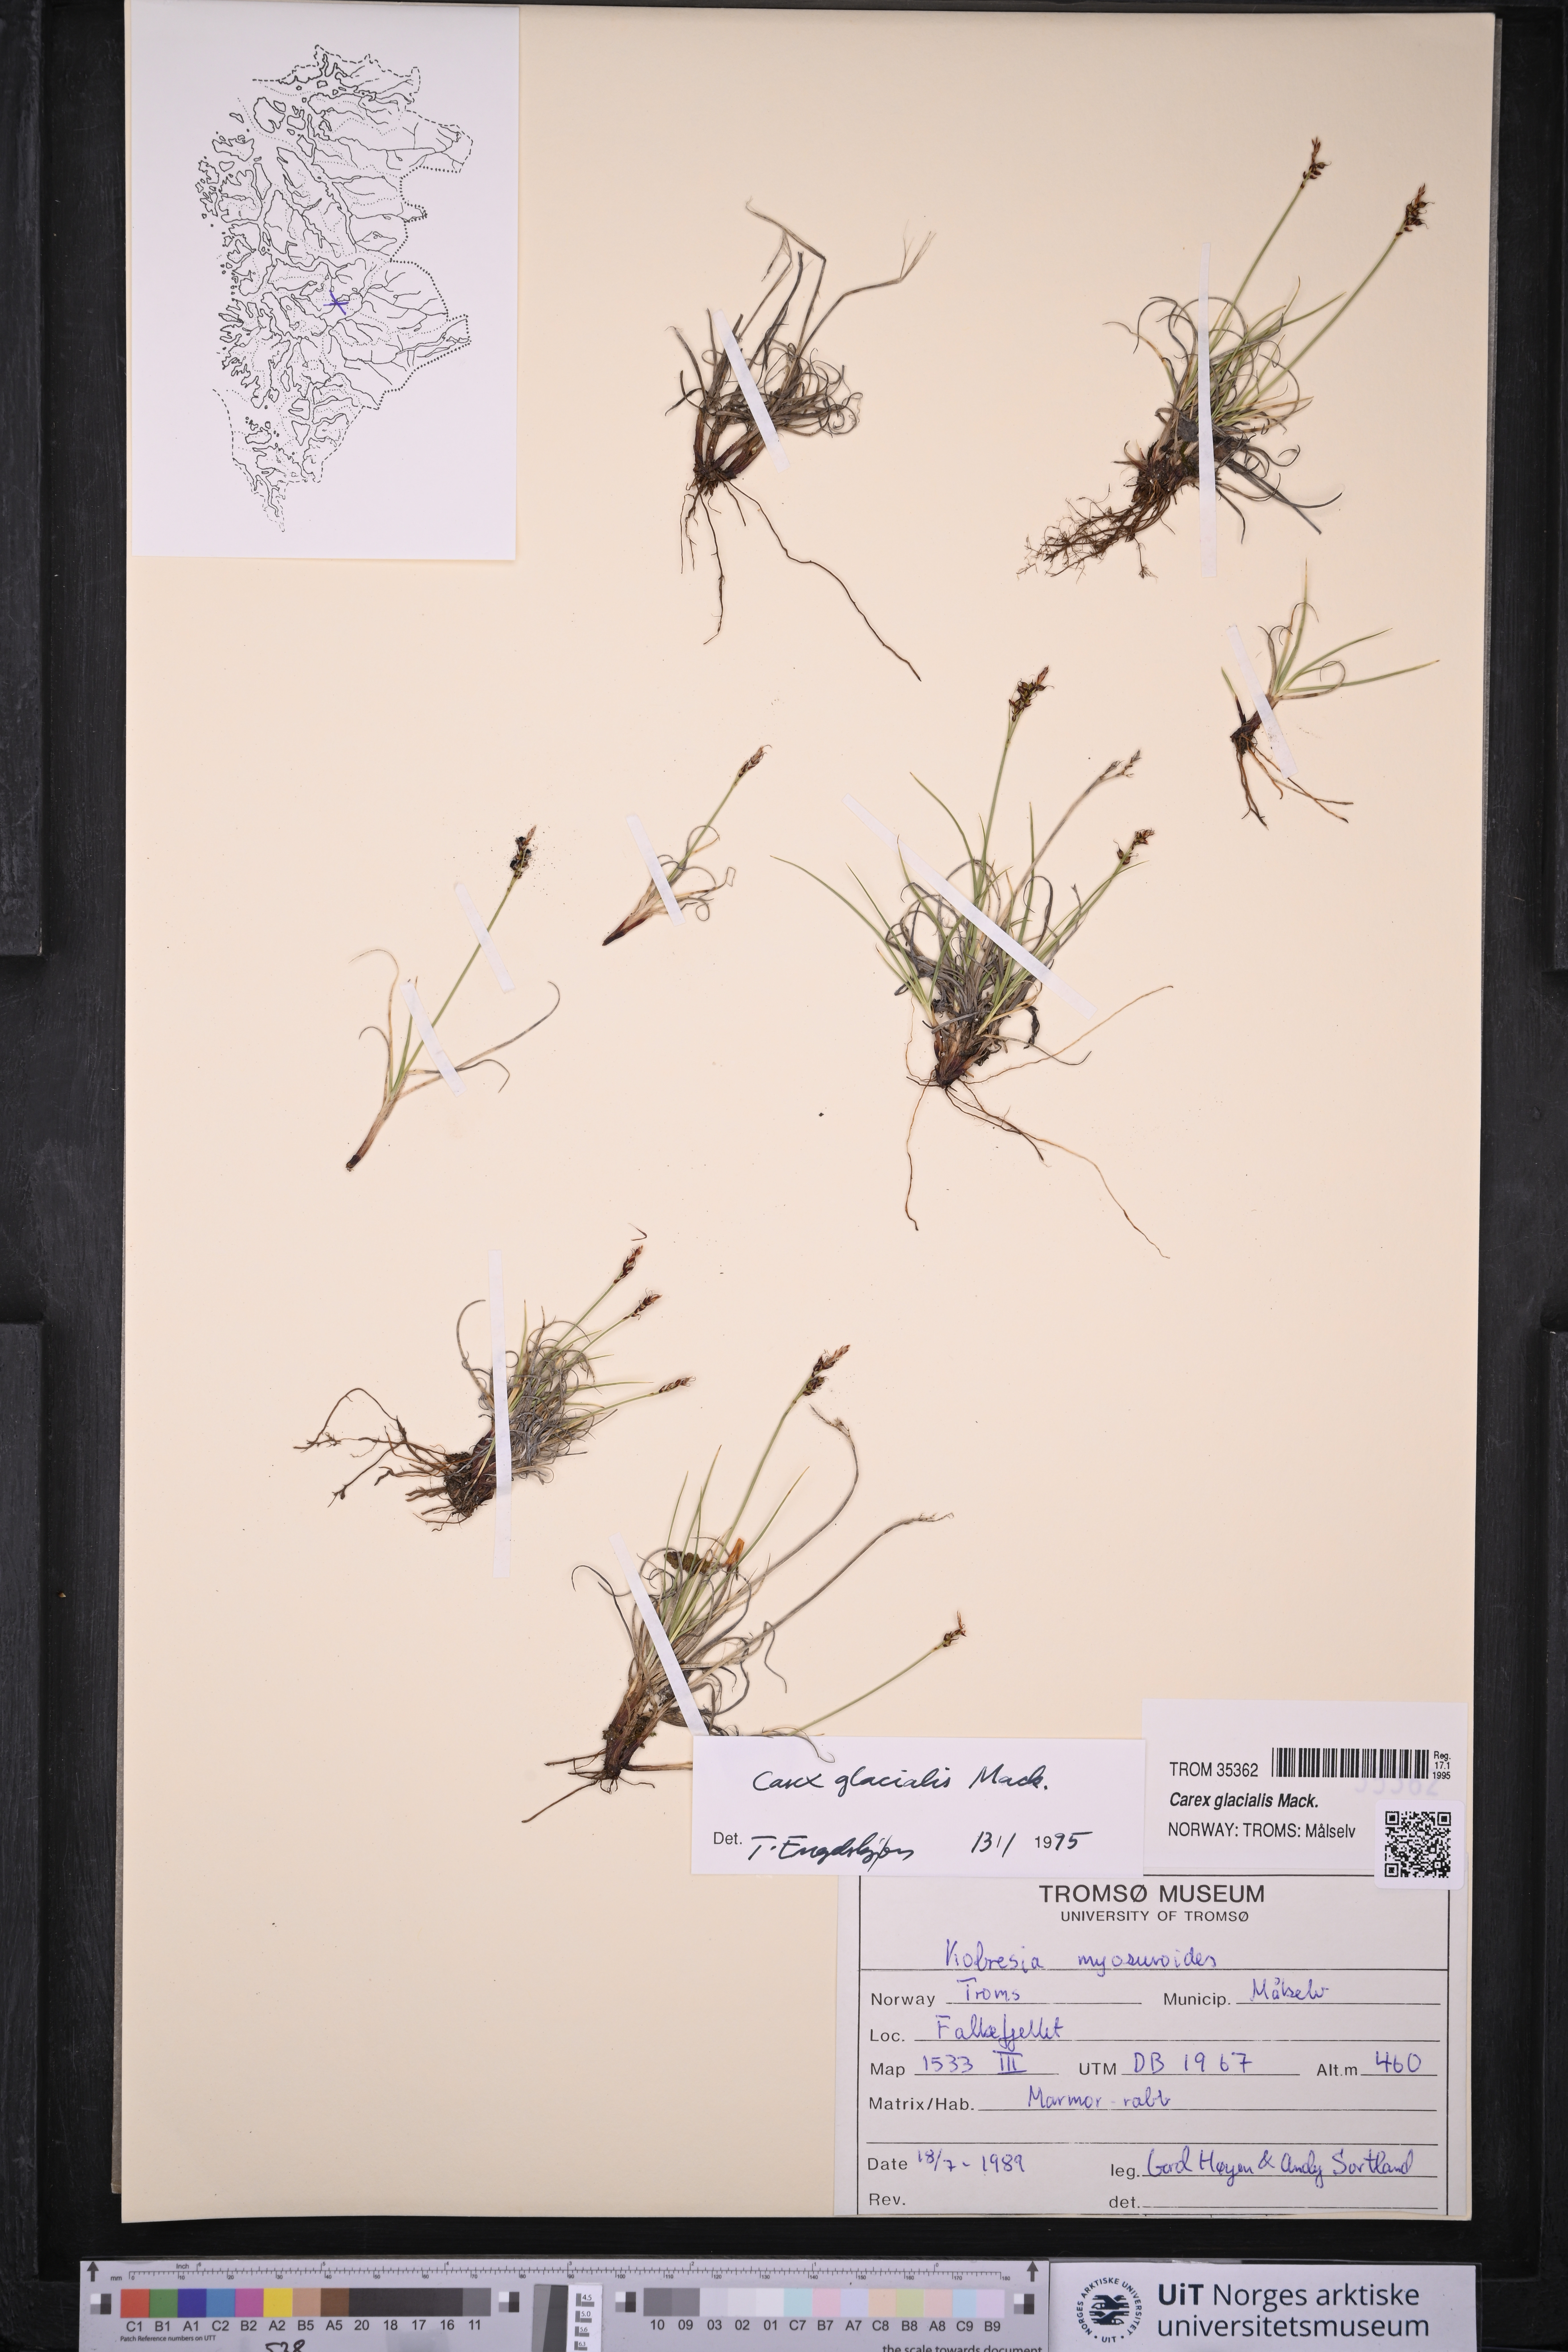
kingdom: Plantae
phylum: Tracheophyta
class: Liliopsida
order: Poales
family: Cyperaceae
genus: Carex
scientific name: Carex glacialis
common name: Newfoundland sedge
